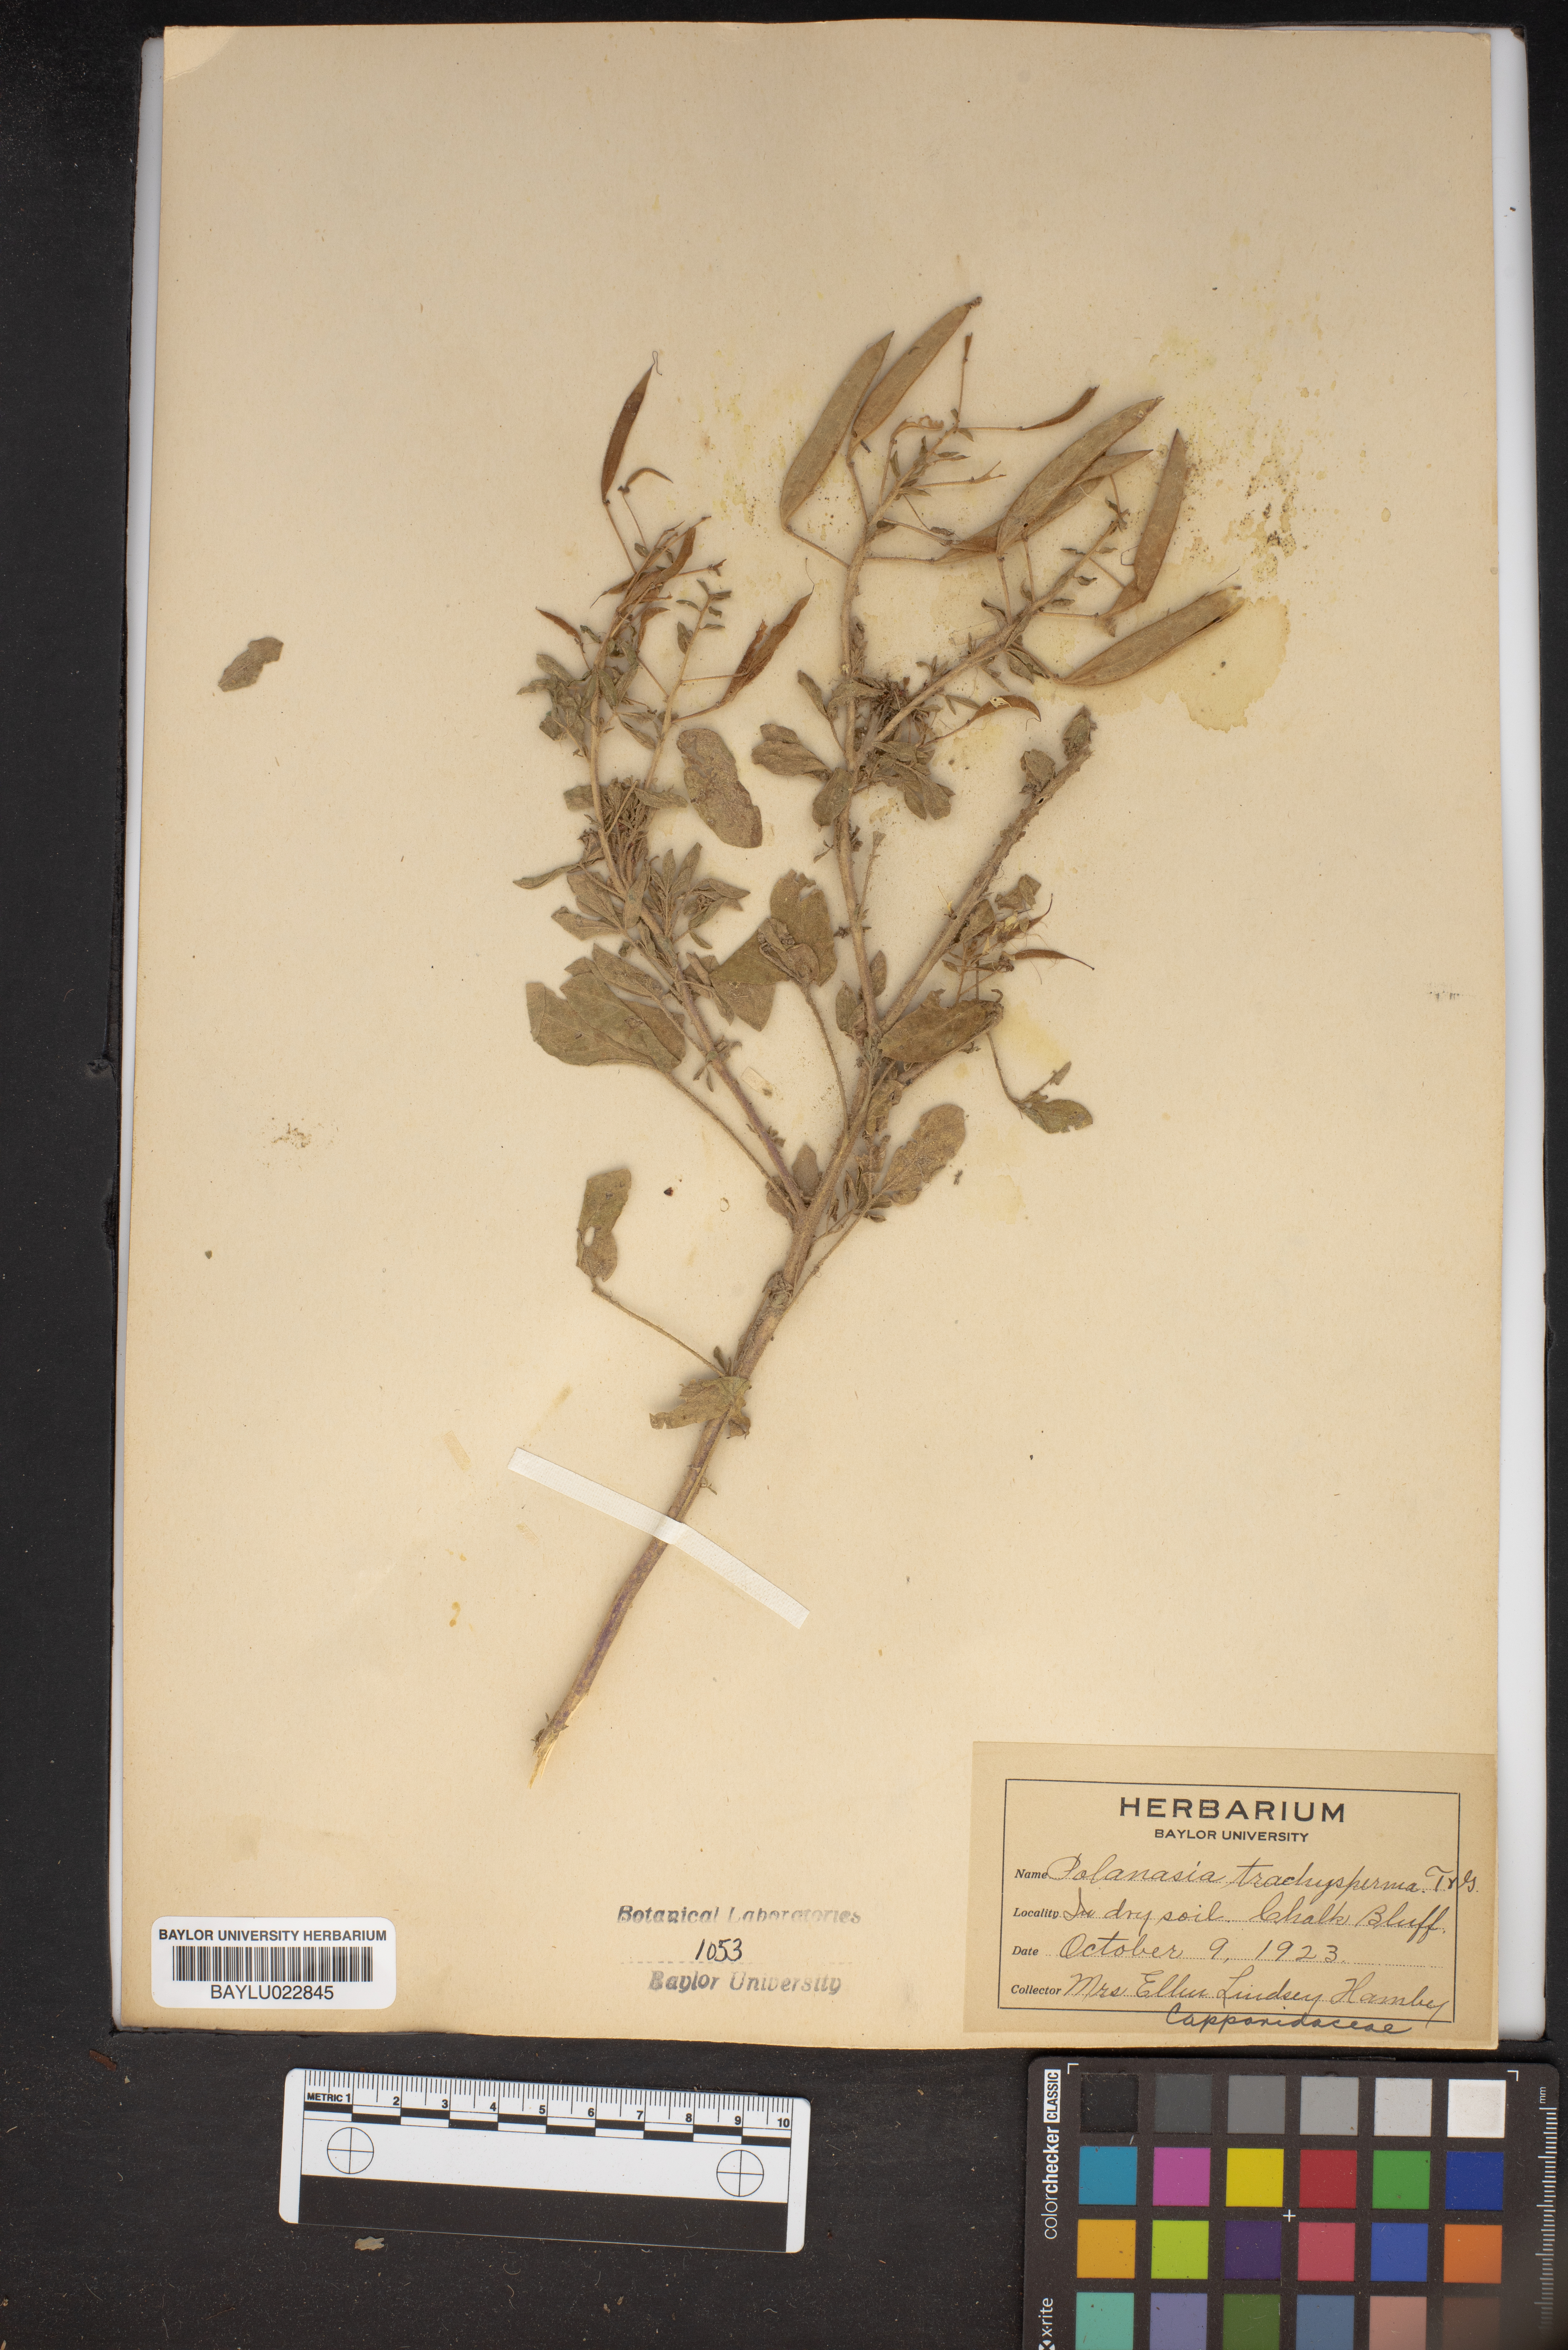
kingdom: Plantae
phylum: Tracheophyta
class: Magnoliopsida
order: Brassicales
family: Cleomaceae
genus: Polanisia
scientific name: Polanisia trachysperma
